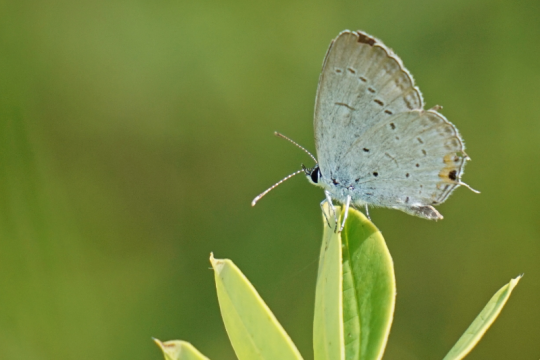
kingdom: Animalia
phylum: Arthropoda
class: Insecta
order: Lepidoptera
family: Lycaenidae
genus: Elkalyce
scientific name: Elkalyce comyntas
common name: Eastern Tailed-Blue
